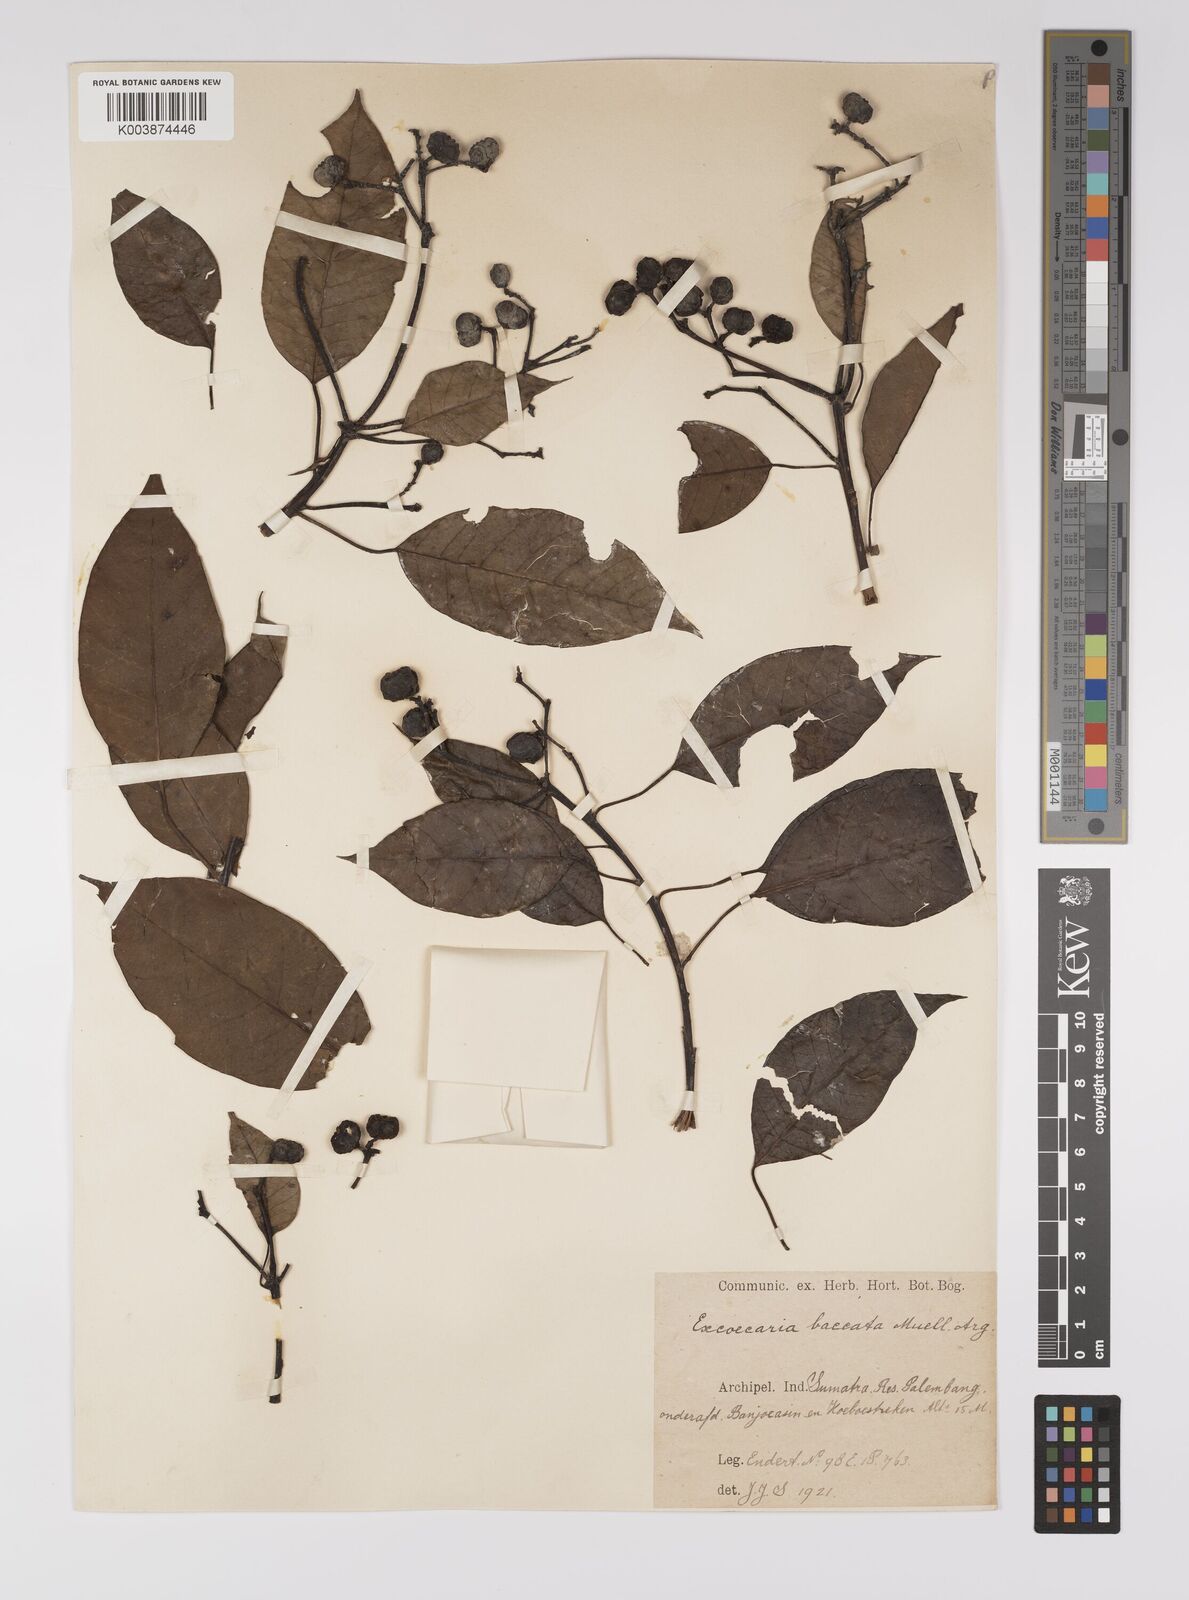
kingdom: Plantae
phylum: Tracheophyta
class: Magnoliopsida
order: Malpighiales
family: Euphorbiaceae
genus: Balakata
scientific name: Balakata baccata
